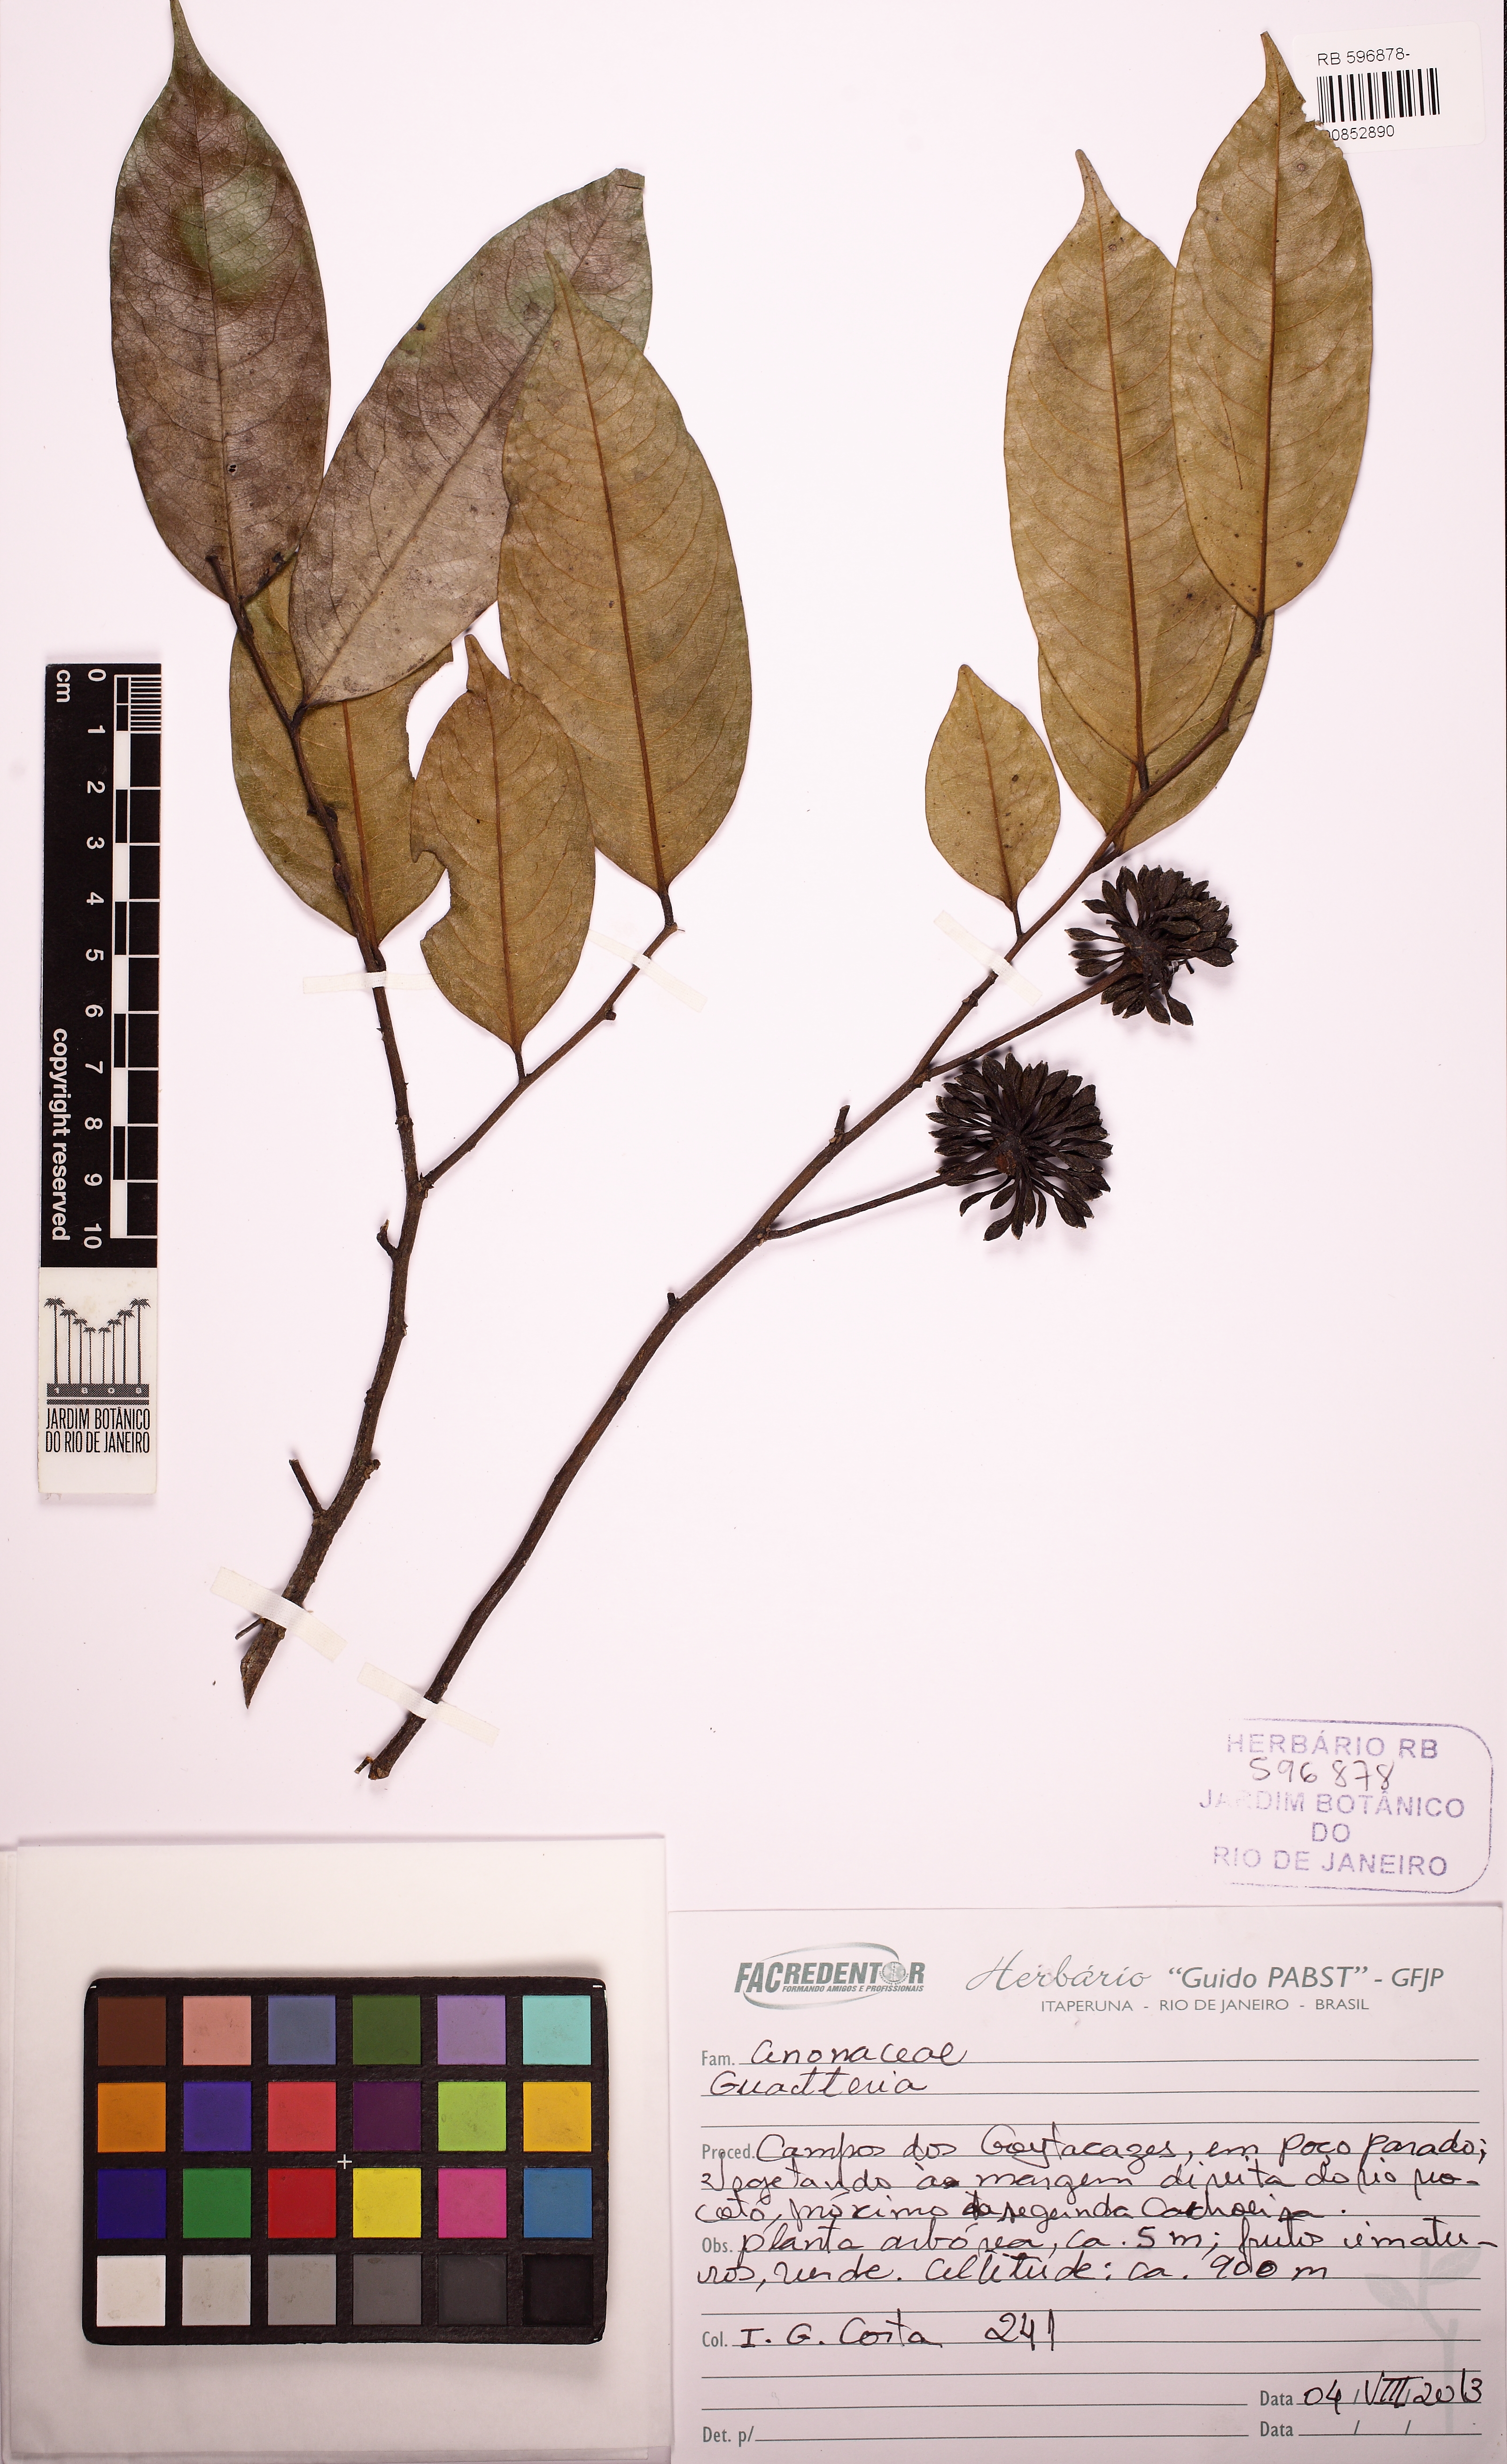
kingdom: Plantae
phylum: Tracheophyta
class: Magnoliopsida
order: Magnoliales
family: Annonaceae
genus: Guatteria
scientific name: Guatteria australis
